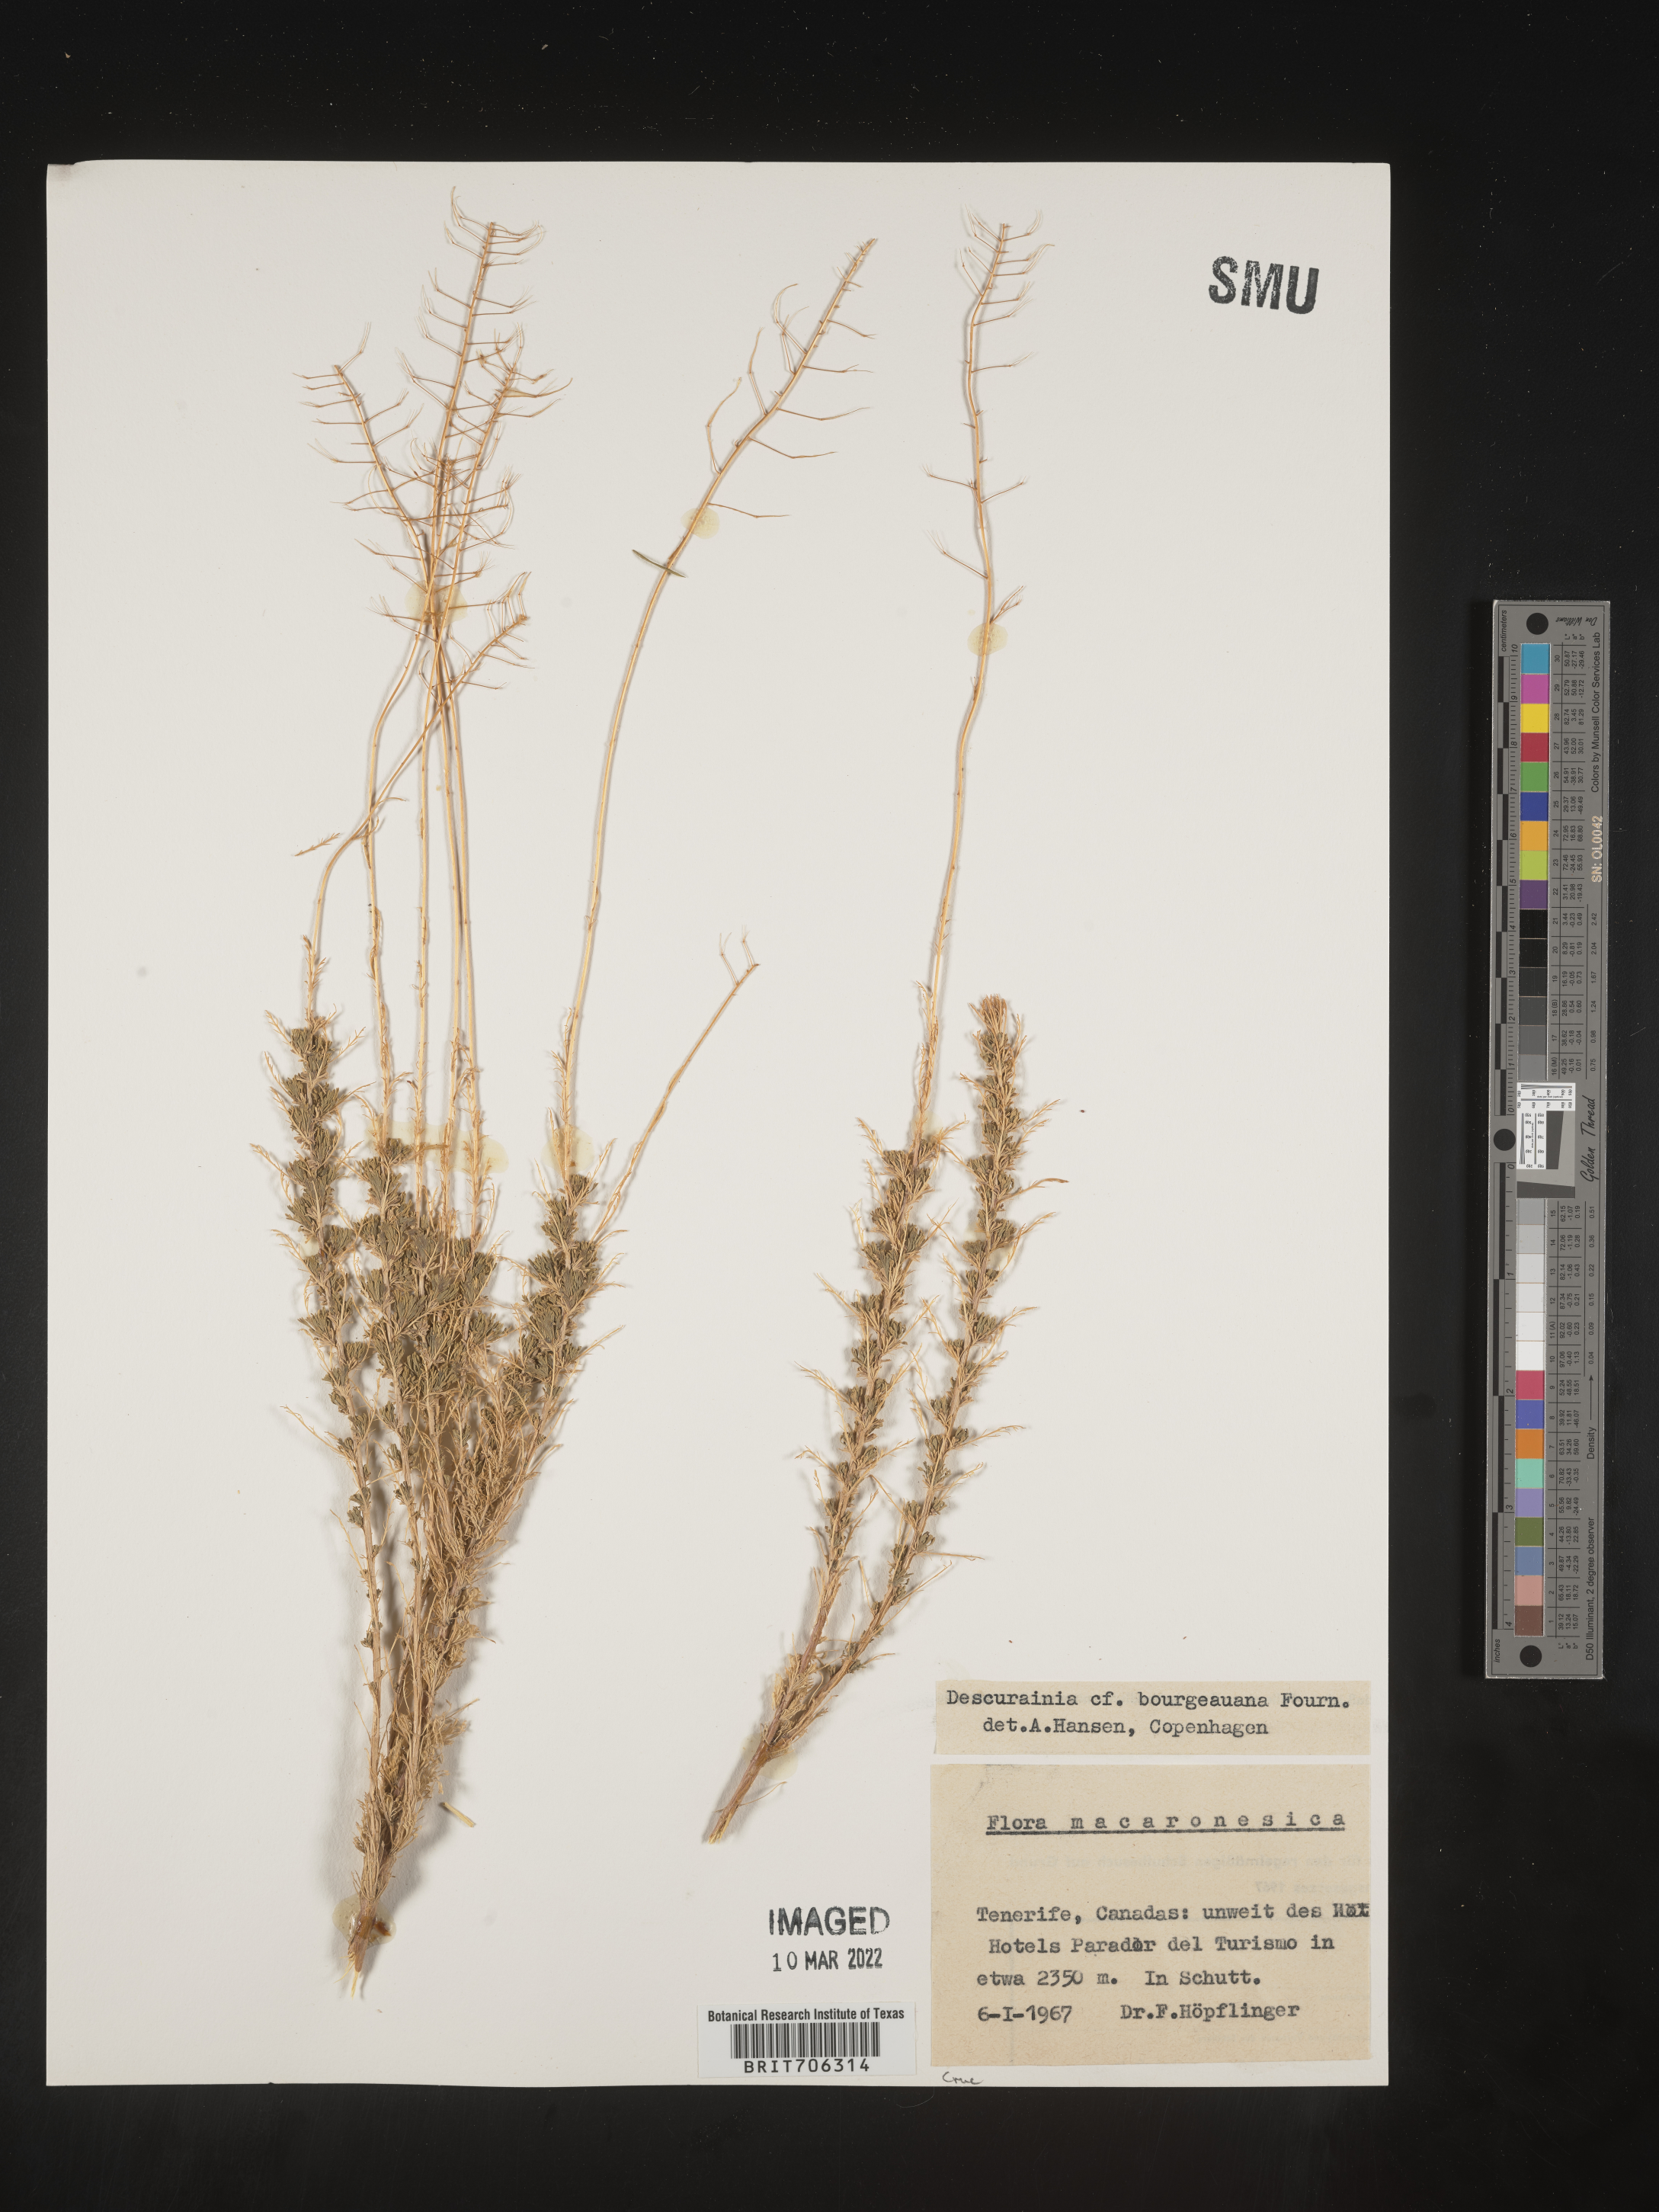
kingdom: Plantae
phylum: Tracheophyta
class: Magnoliopsida
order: Brassicales
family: Brassicaceae
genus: Descurainia
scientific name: Descurainia
